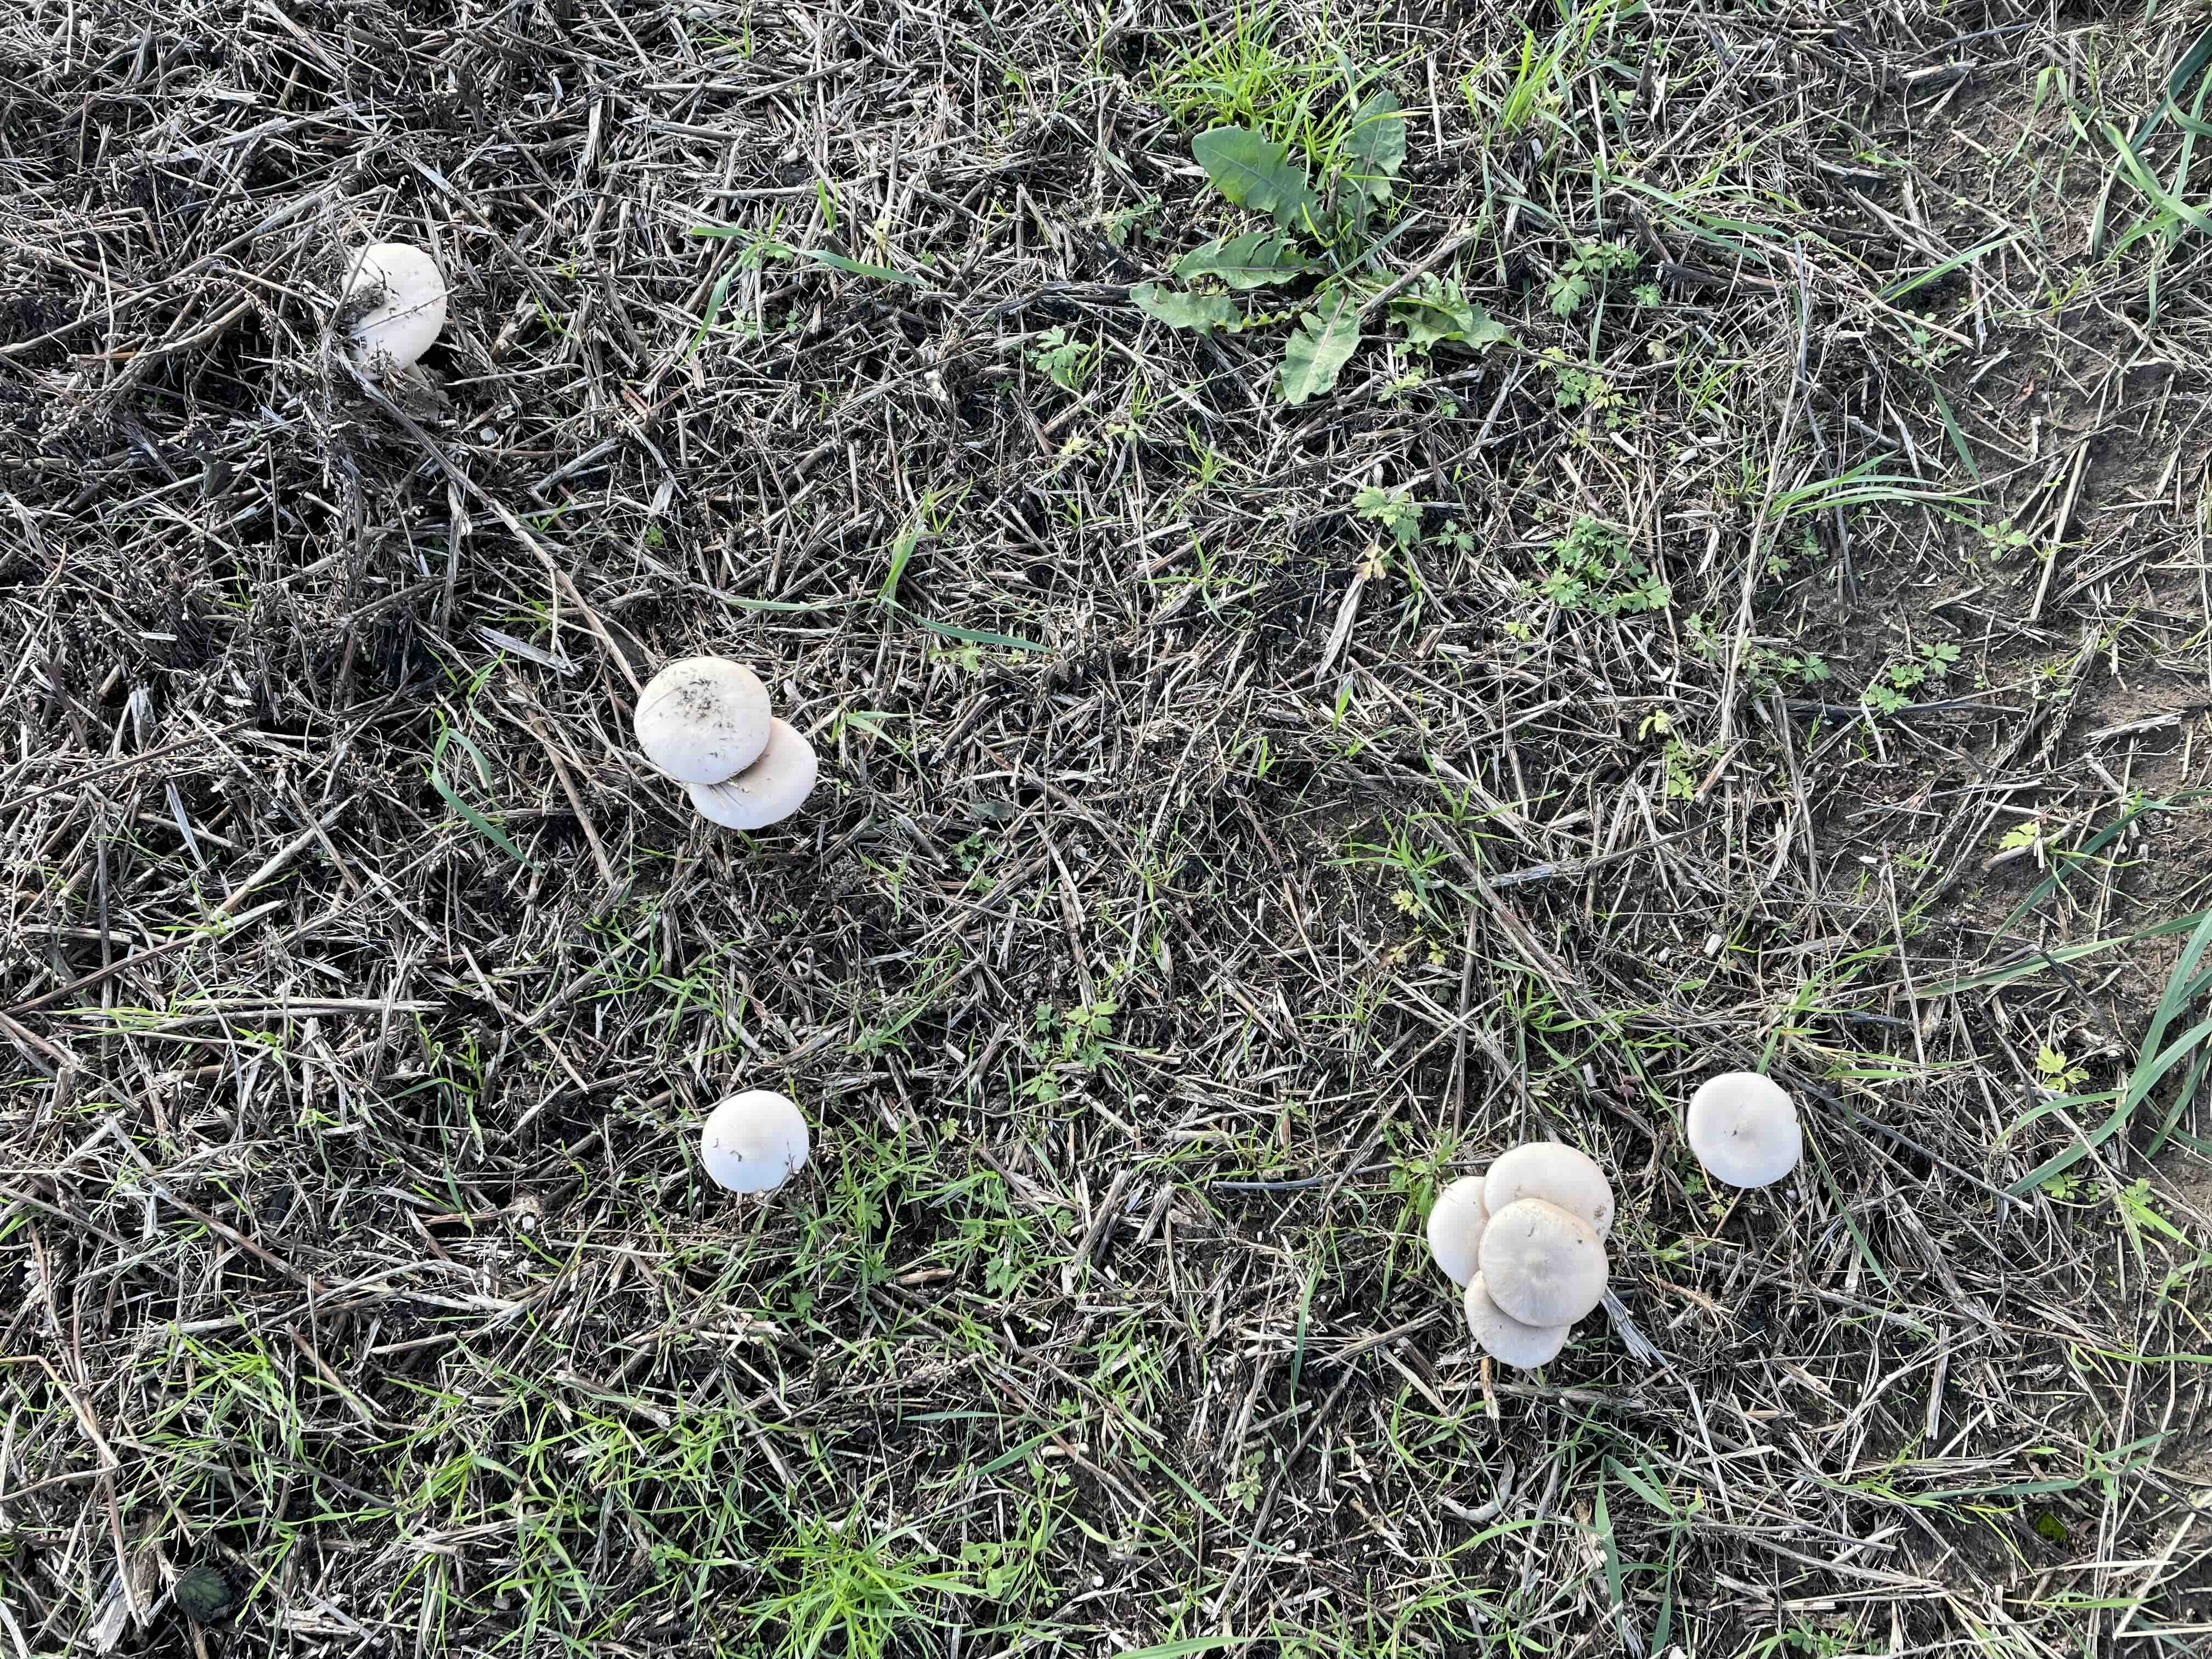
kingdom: Fungi
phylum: Basidiomycota
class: Agaricomycetes
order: Agaricales
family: Pluteaceae
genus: Volvopluteus
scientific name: Volvopluteus gloiocephalus
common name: høj posesvamp
